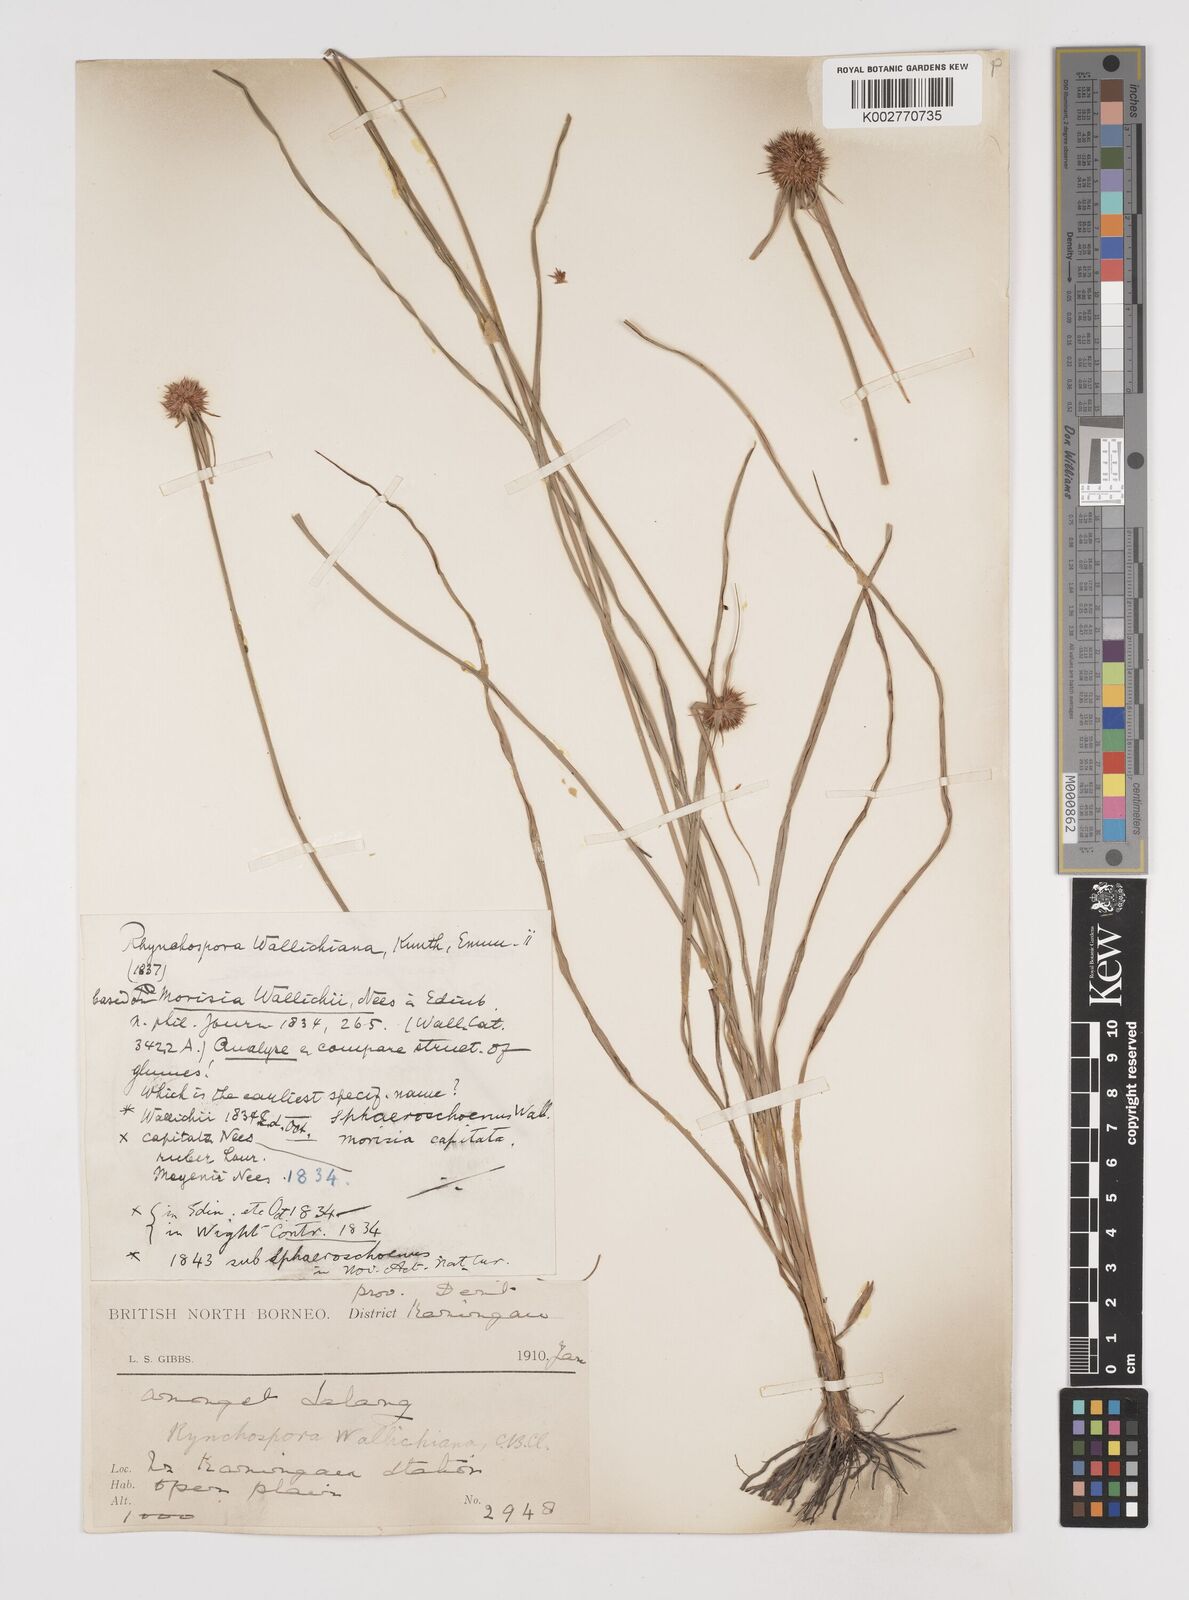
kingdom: Plantae
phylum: Tracheophyta
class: Liliopsida
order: Poales
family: Cyperaceae
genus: Rhynchospora
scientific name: Rhynchospora rubra
